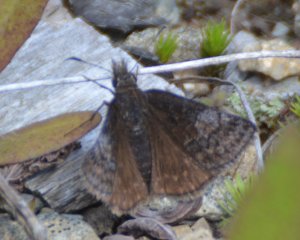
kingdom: Animalia
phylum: Arthropoda
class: Insecta
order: Lepidoptera
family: Hesperiidae
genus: Erynnis
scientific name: Erynnis icelus
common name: Dreamy Duskywing
